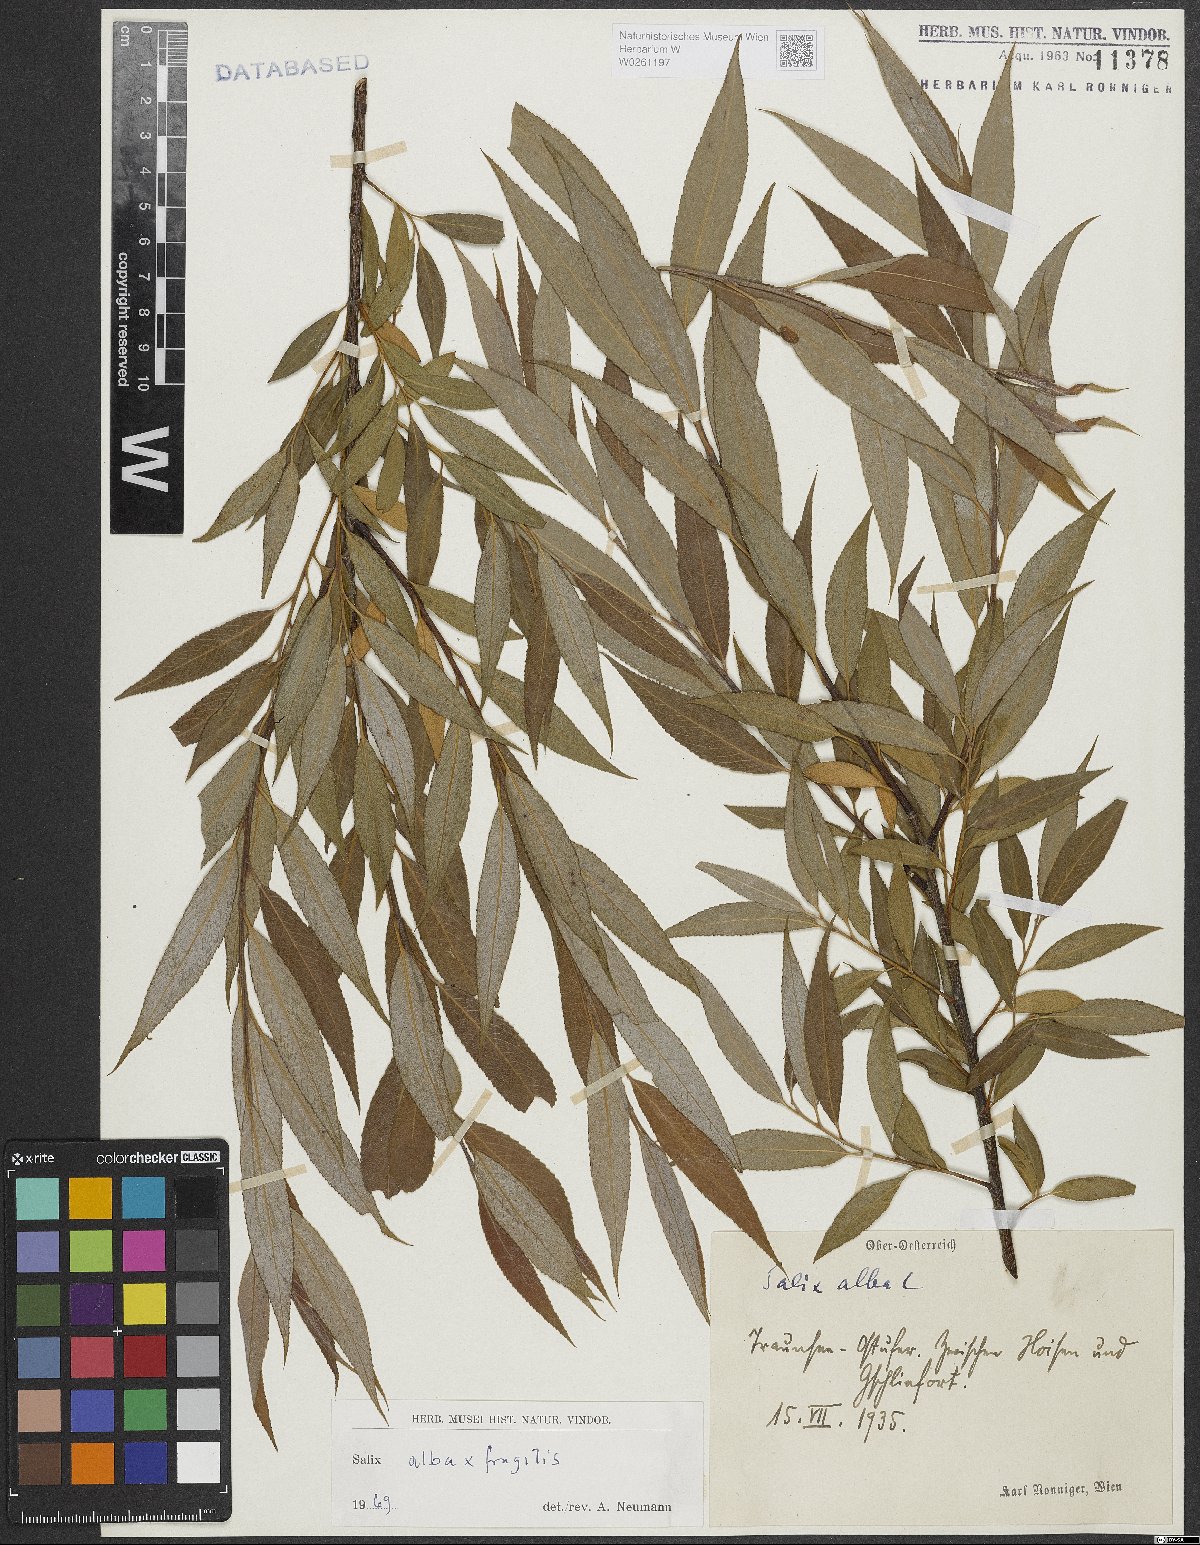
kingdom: Plantae
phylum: Tracheophyta
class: Magnoliopsida
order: Malpighiales
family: Salicaceae
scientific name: Salicaceae
